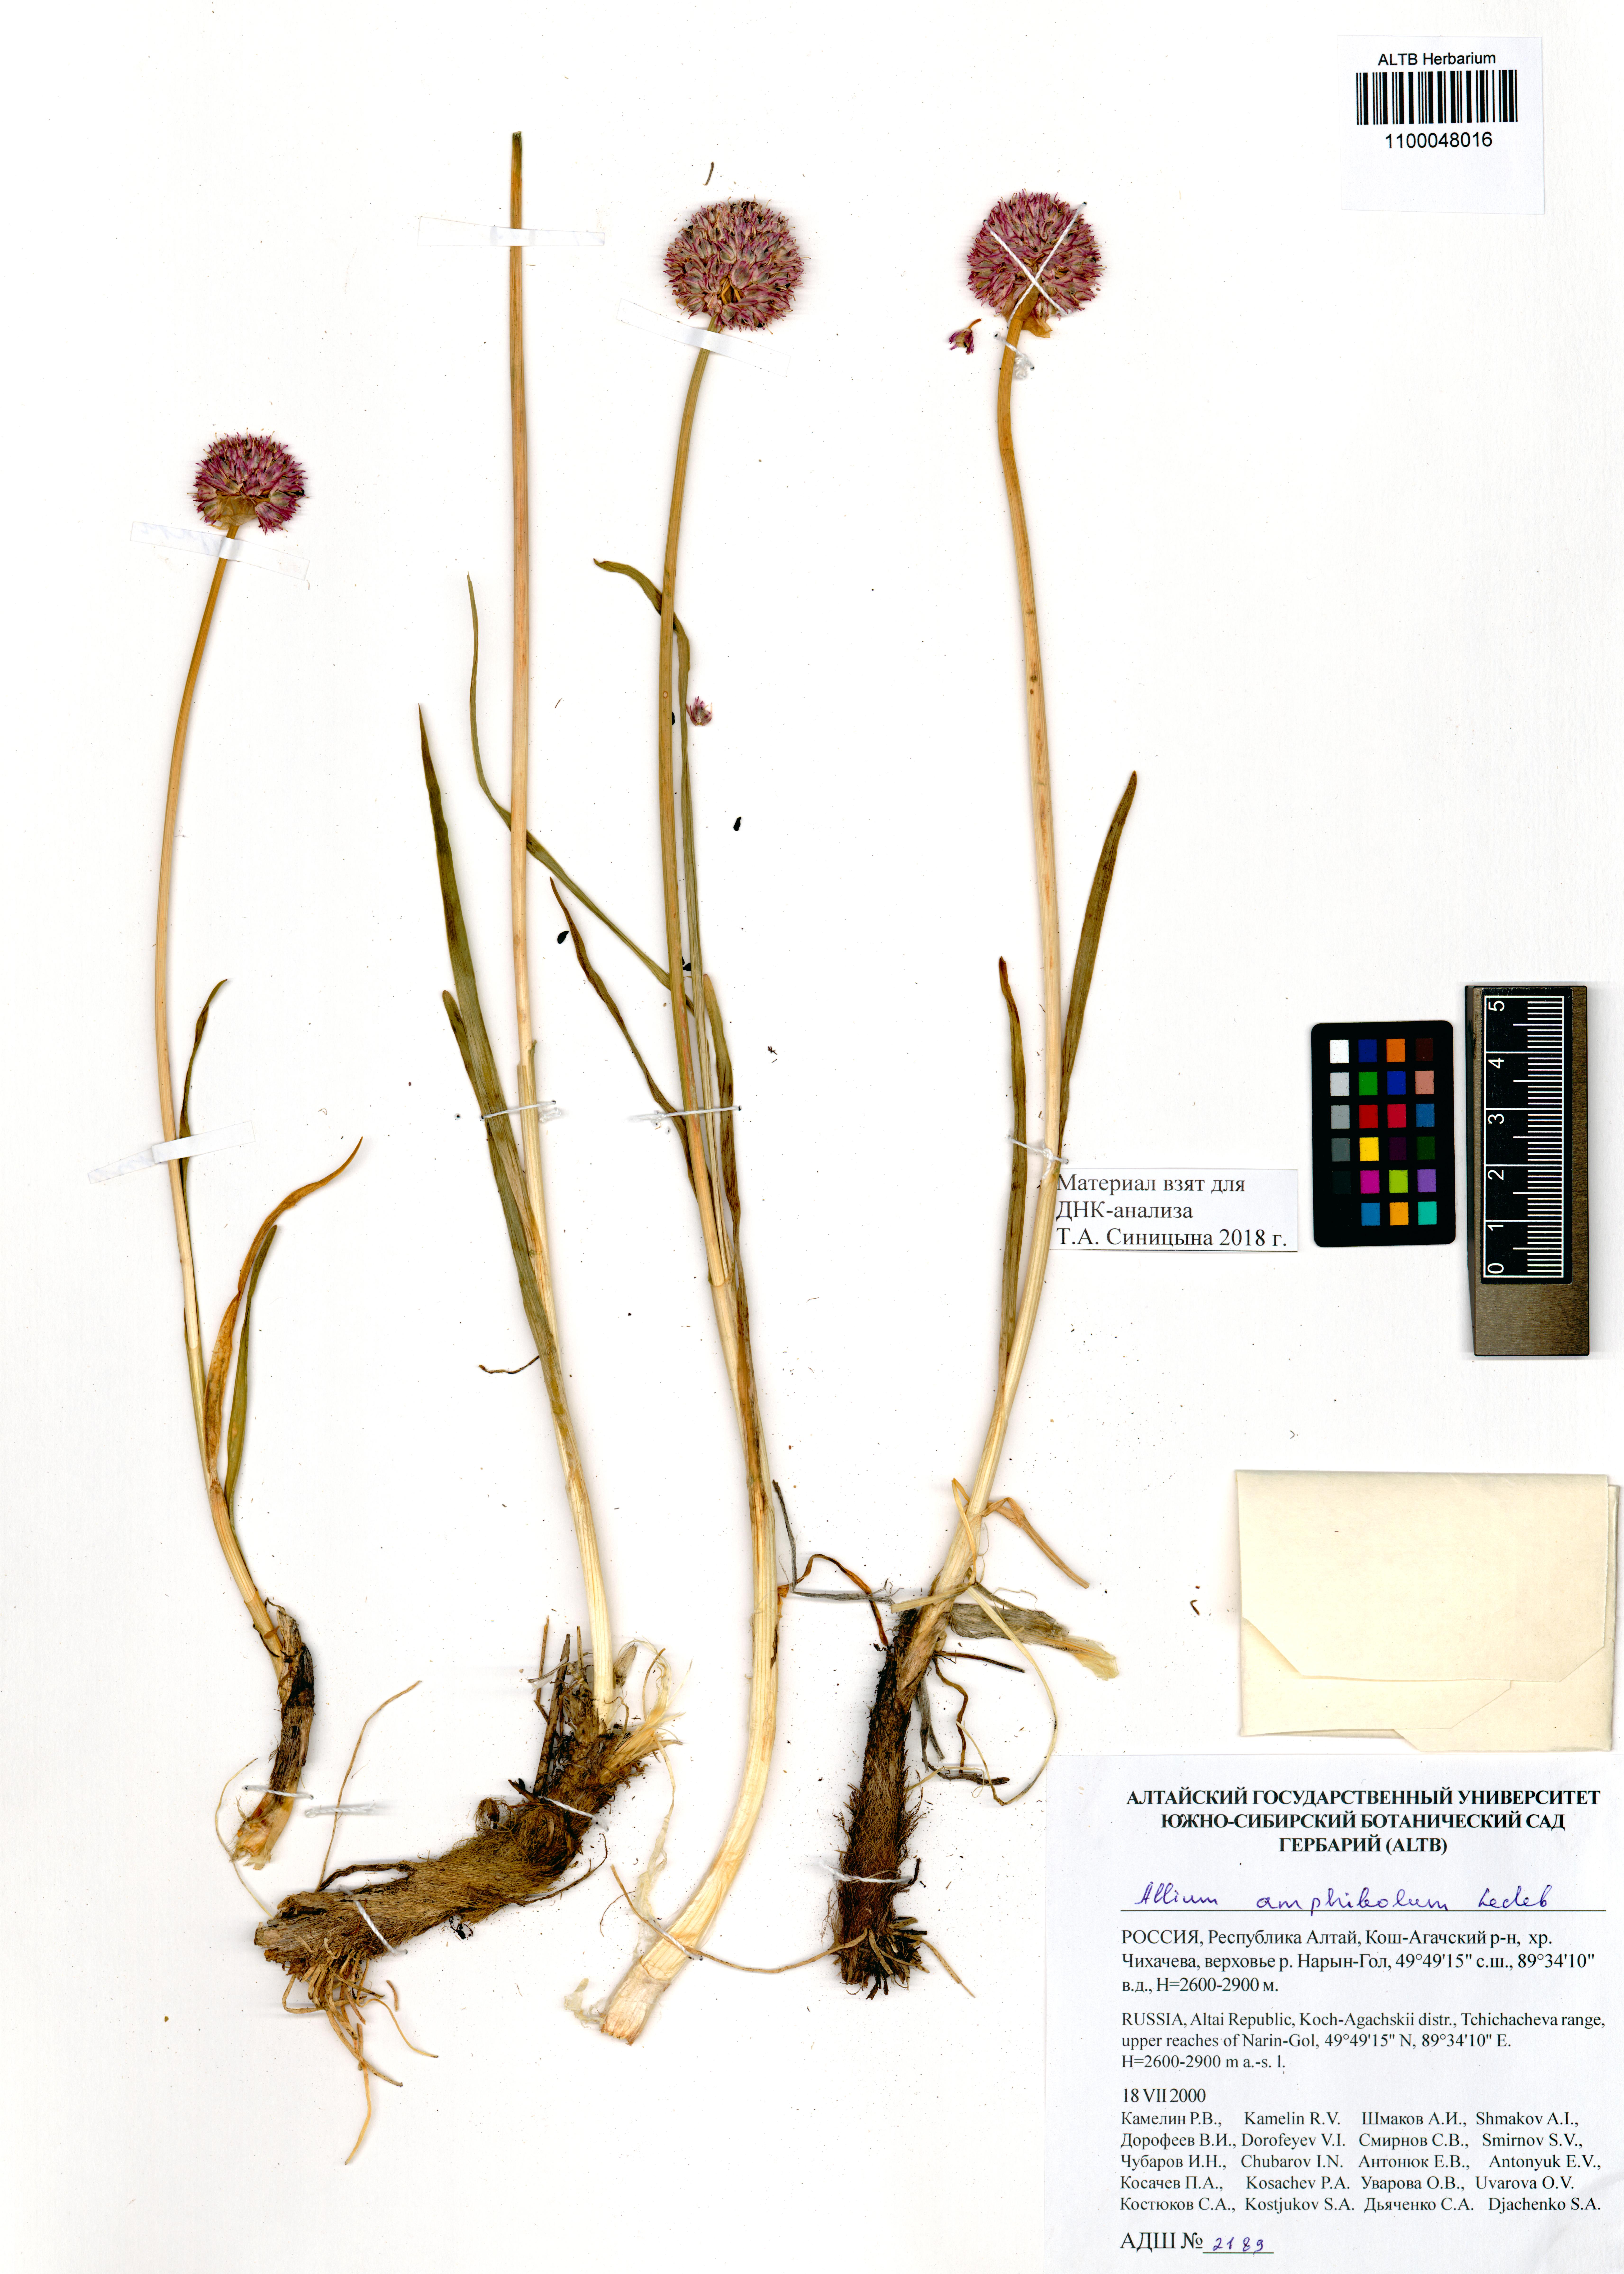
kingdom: Plantae
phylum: Tracheophyta
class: Liliopsida
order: Asparagales
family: Amaryllidaceae
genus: Allium
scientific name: Allium amphibolum
